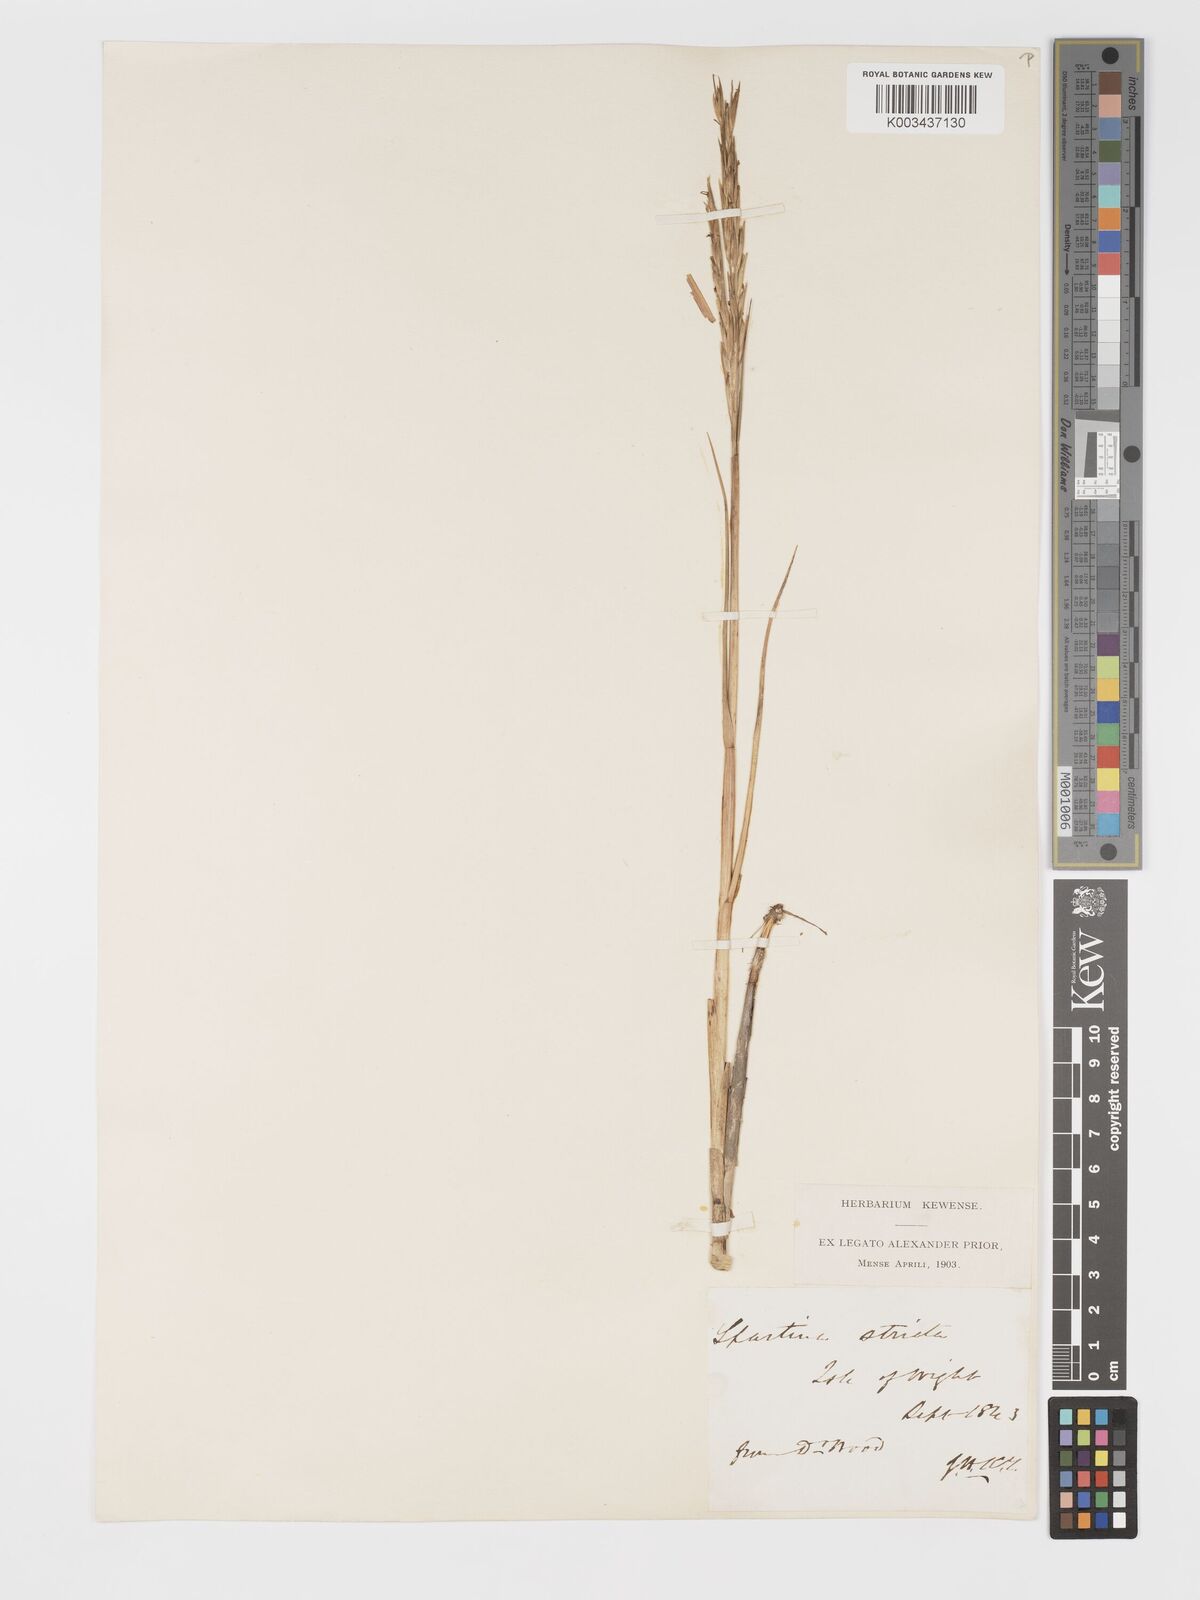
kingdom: Plantae
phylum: Tracheophyta
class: Liliopsida
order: Poales
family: Poaceae
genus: Sporobolus
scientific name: Sporobolus maritimus
